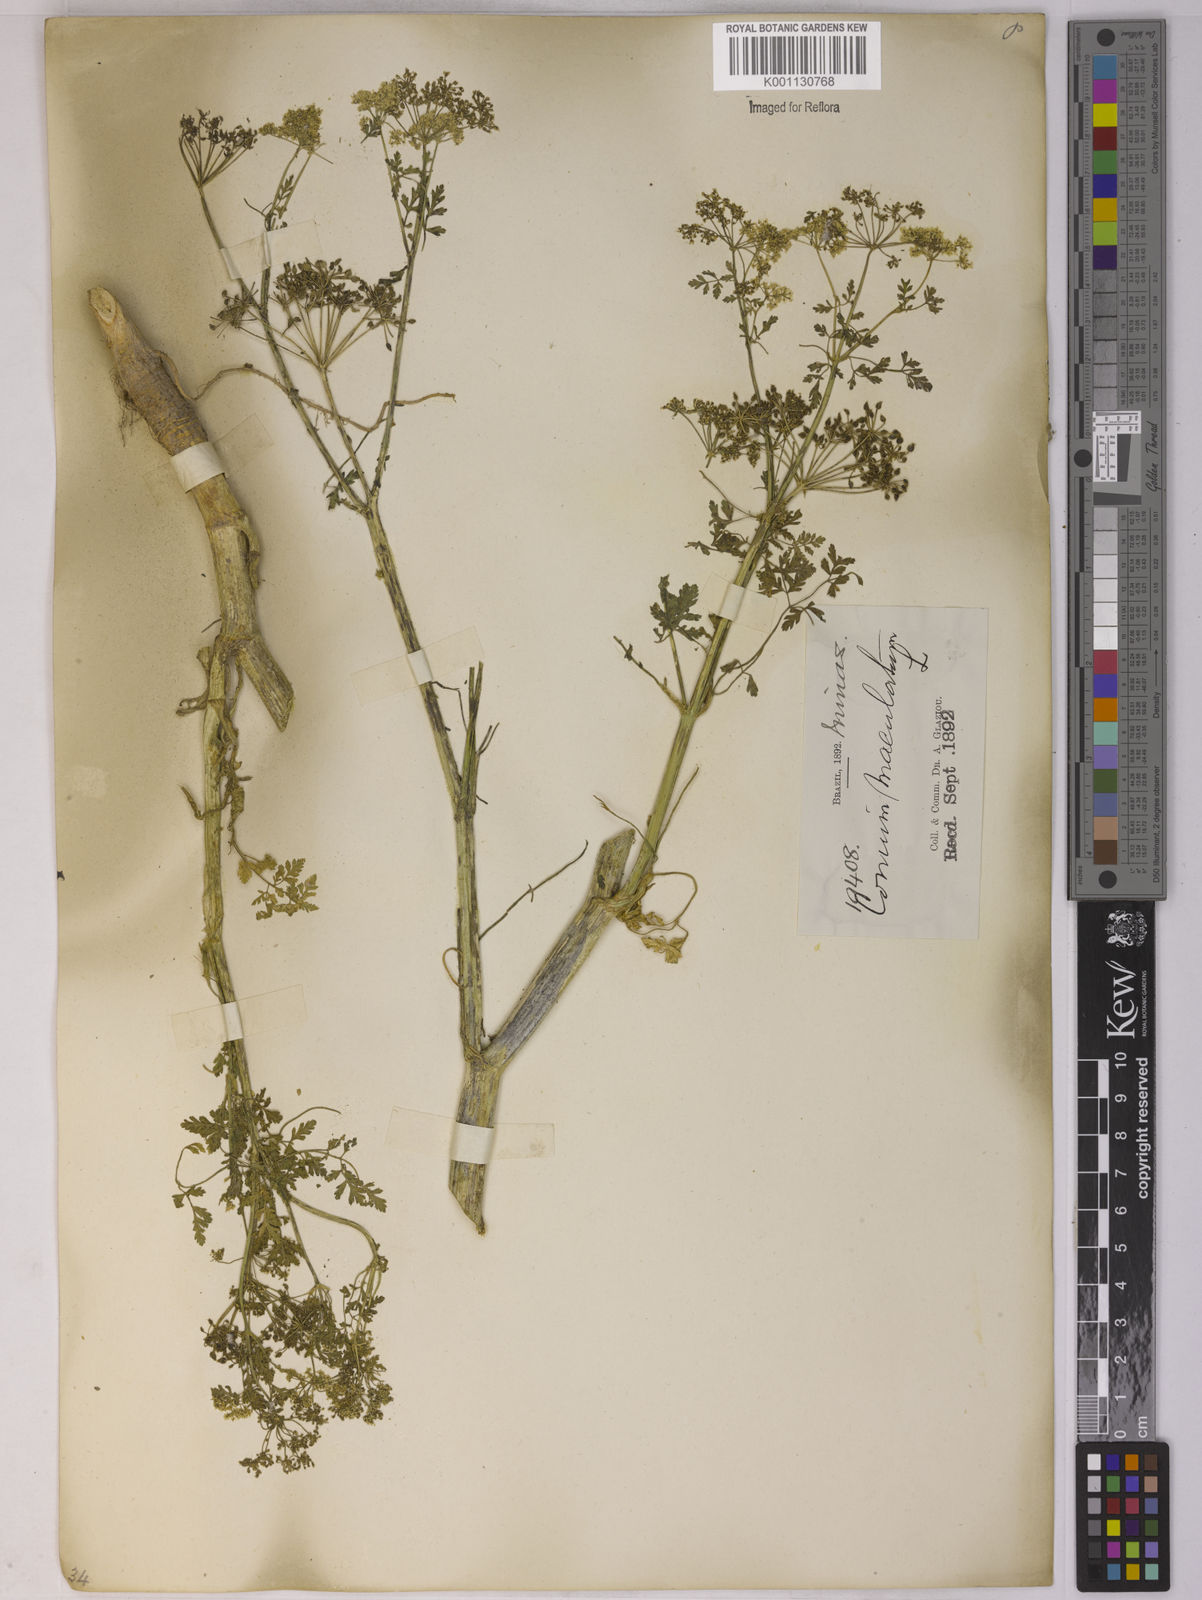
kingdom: Plantae
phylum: Tracheophyta
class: Magnoliopsida
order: Apiales
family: Apiaceae
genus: Conium
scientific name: Conium maculatum
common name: Hemlock
